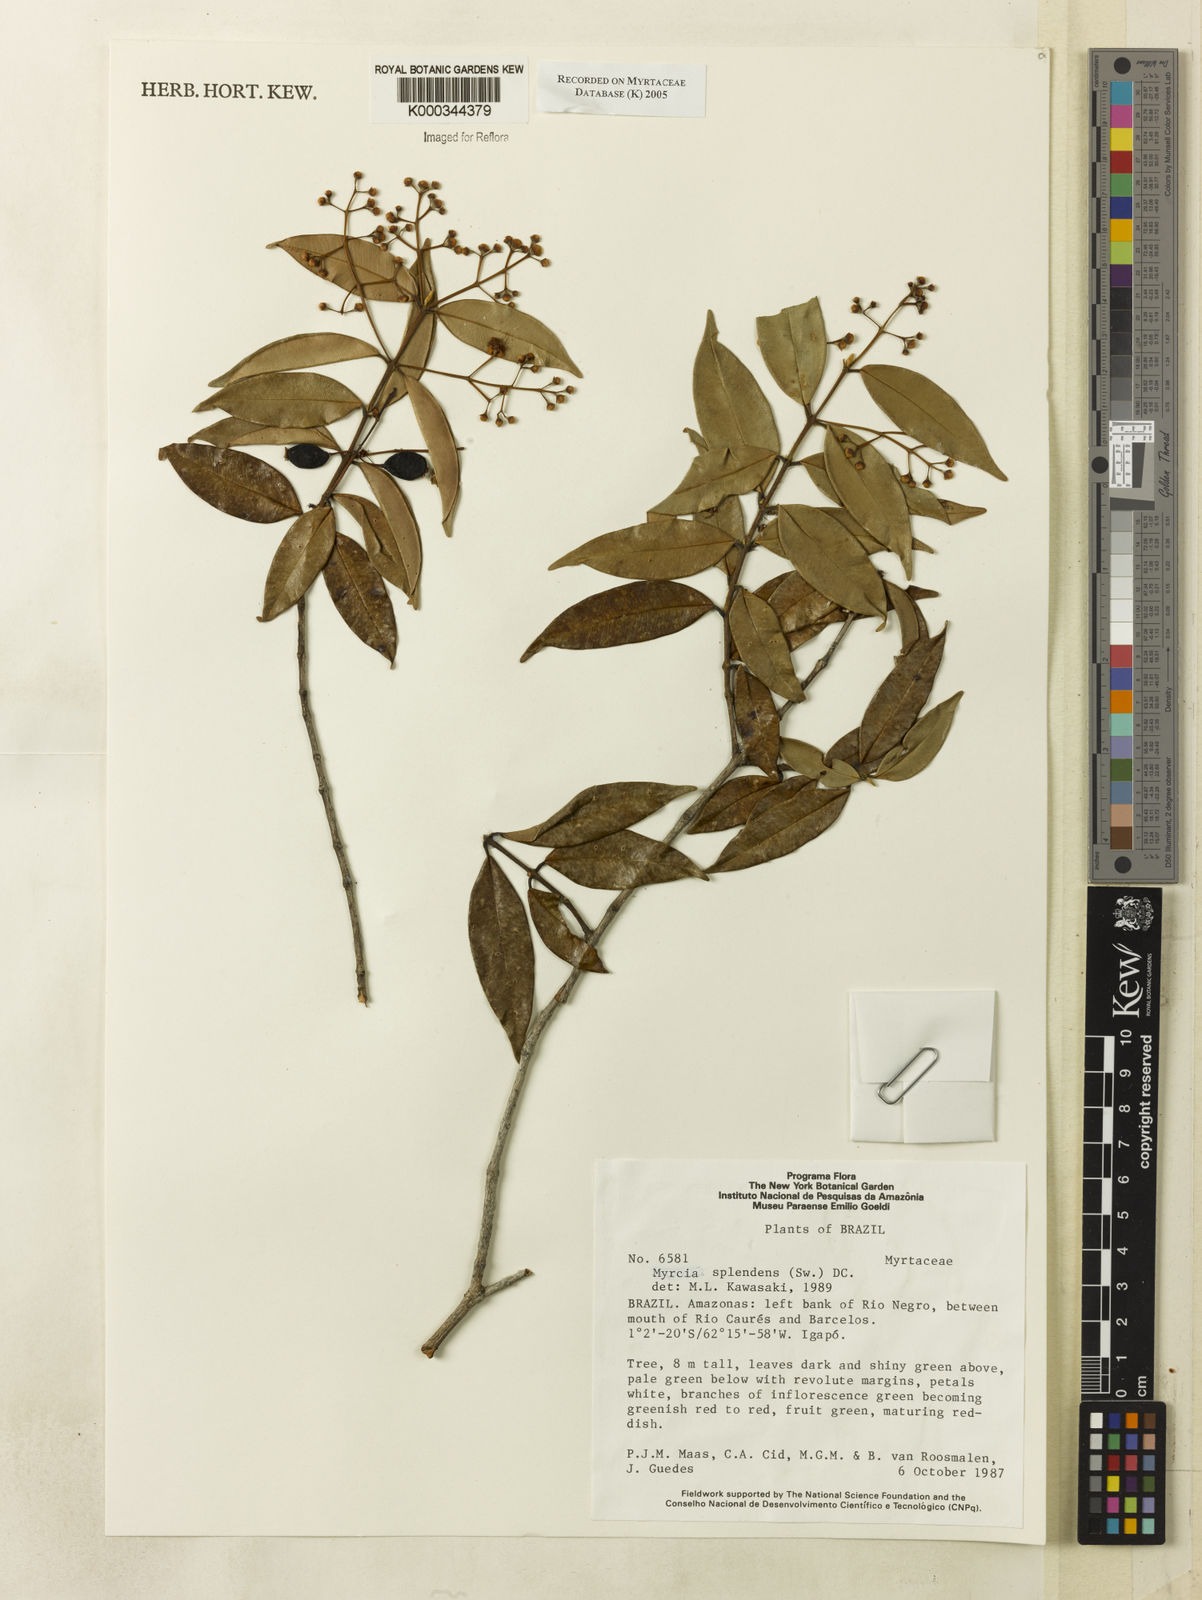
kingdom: Plantae
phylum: Tracheophyta
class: Magnoliopsida
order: Myrtales
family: Myrtaceae
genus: Myrcia
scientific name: Myrcia splendens
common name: Surinam cherry
